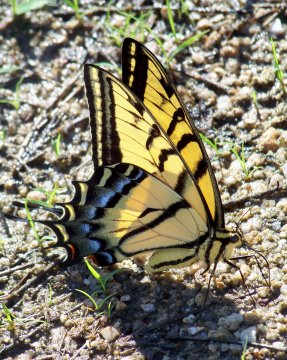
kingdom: Animalia
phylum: Arthropoda
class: Insecta
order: Lepidoptera
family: Papilionidae
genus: Papilio
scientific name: Papilio multicaudata
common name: Two-tailed Swallowtail
